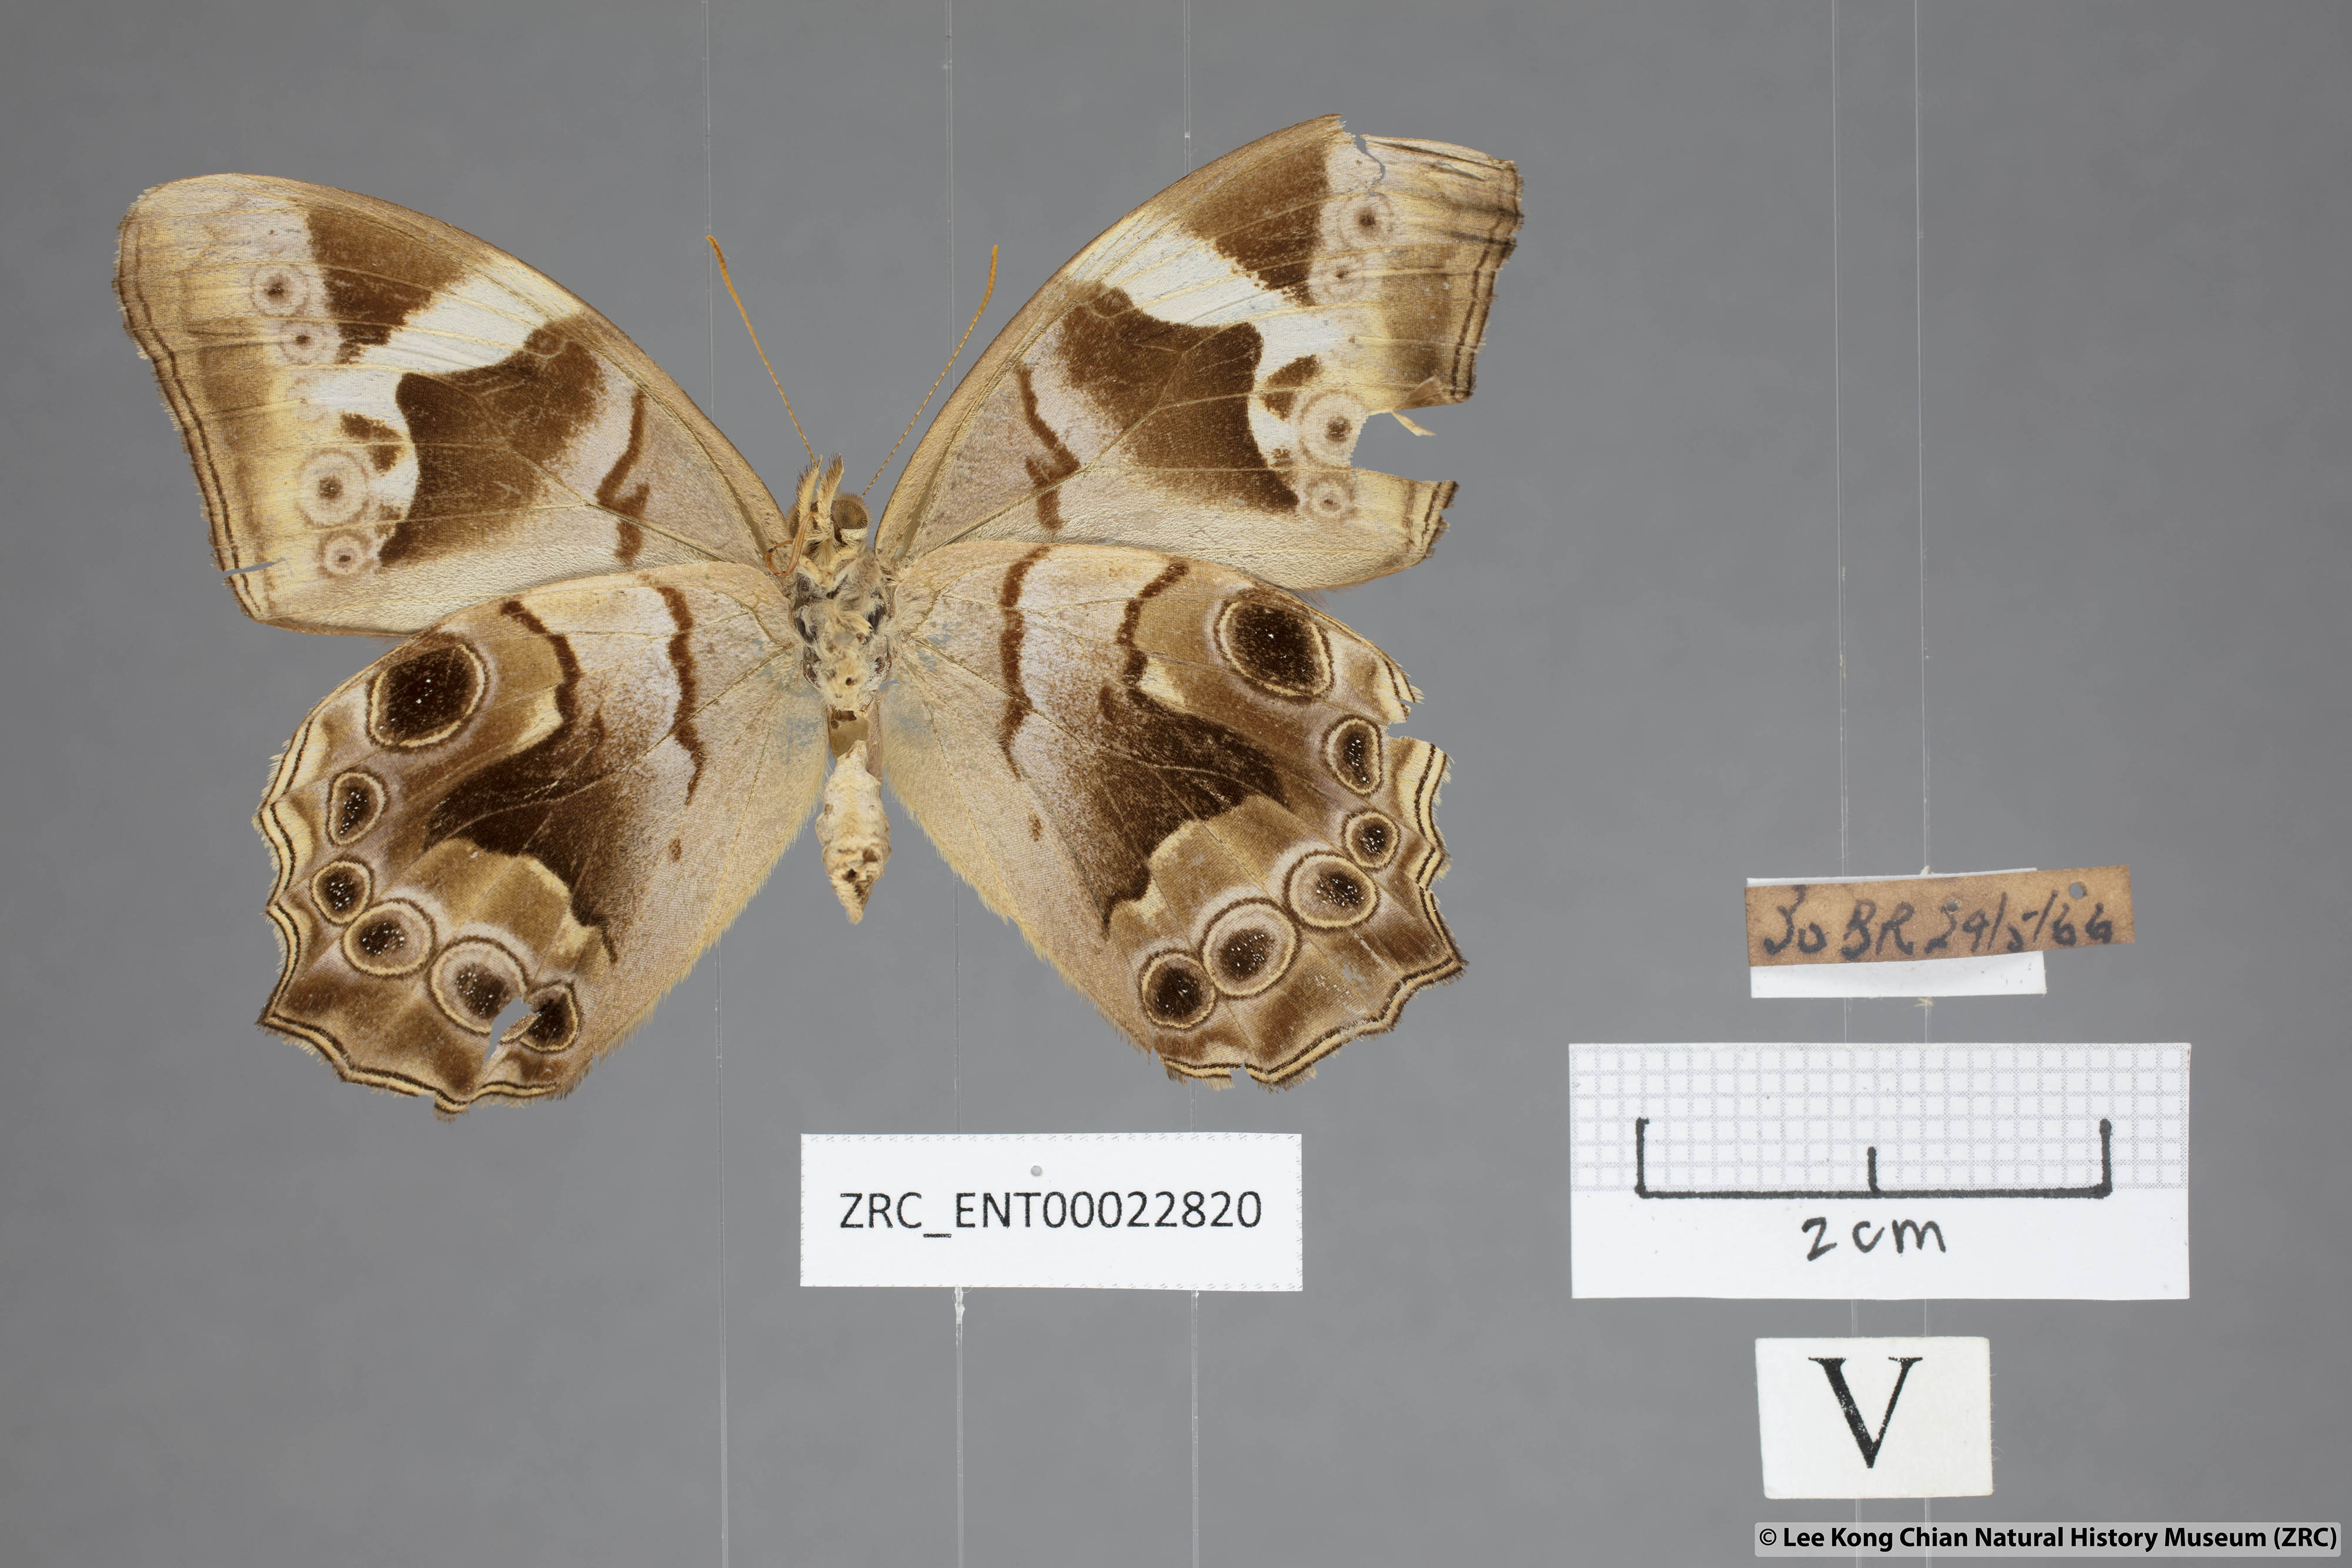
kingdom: Animalia
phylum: Arthropoda
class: Insecta
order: Lepidoptera
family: Nymphalidae
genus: Lethe
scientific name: Lethe chandica
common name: Angled red forester
